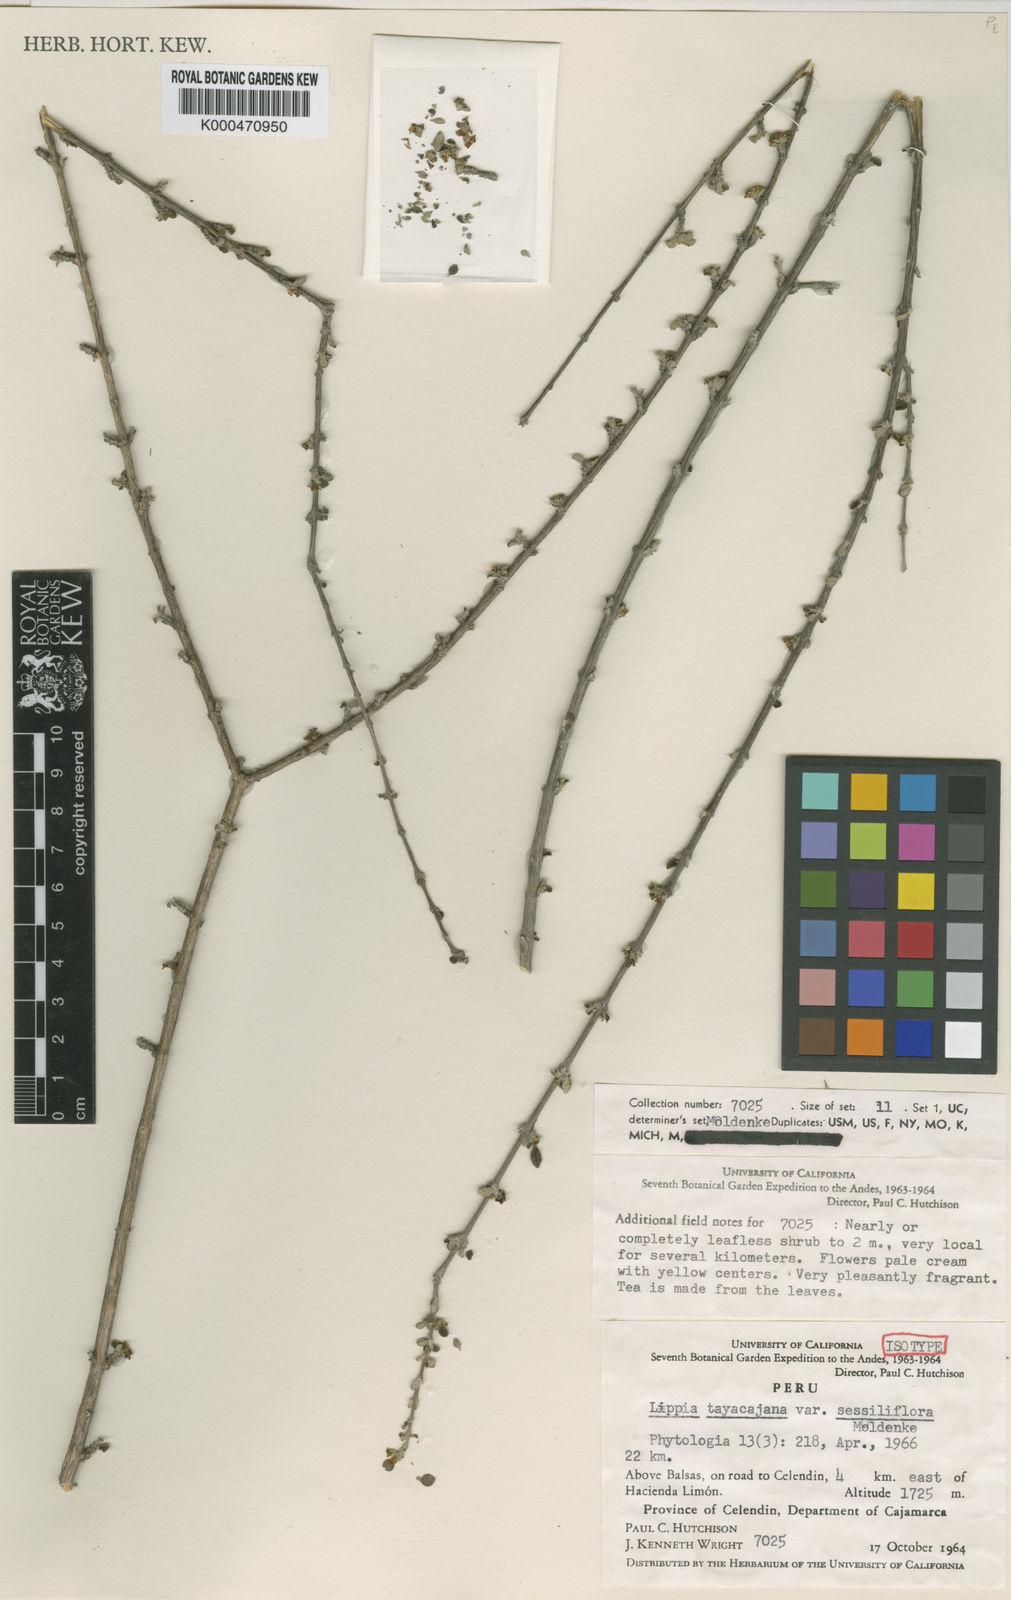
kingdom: Plantae
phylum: Tracheophyta
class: Magnoliopsida
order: Lamiales
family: Verbenaceae
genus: Lippia
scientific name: Lippia tayacajana
